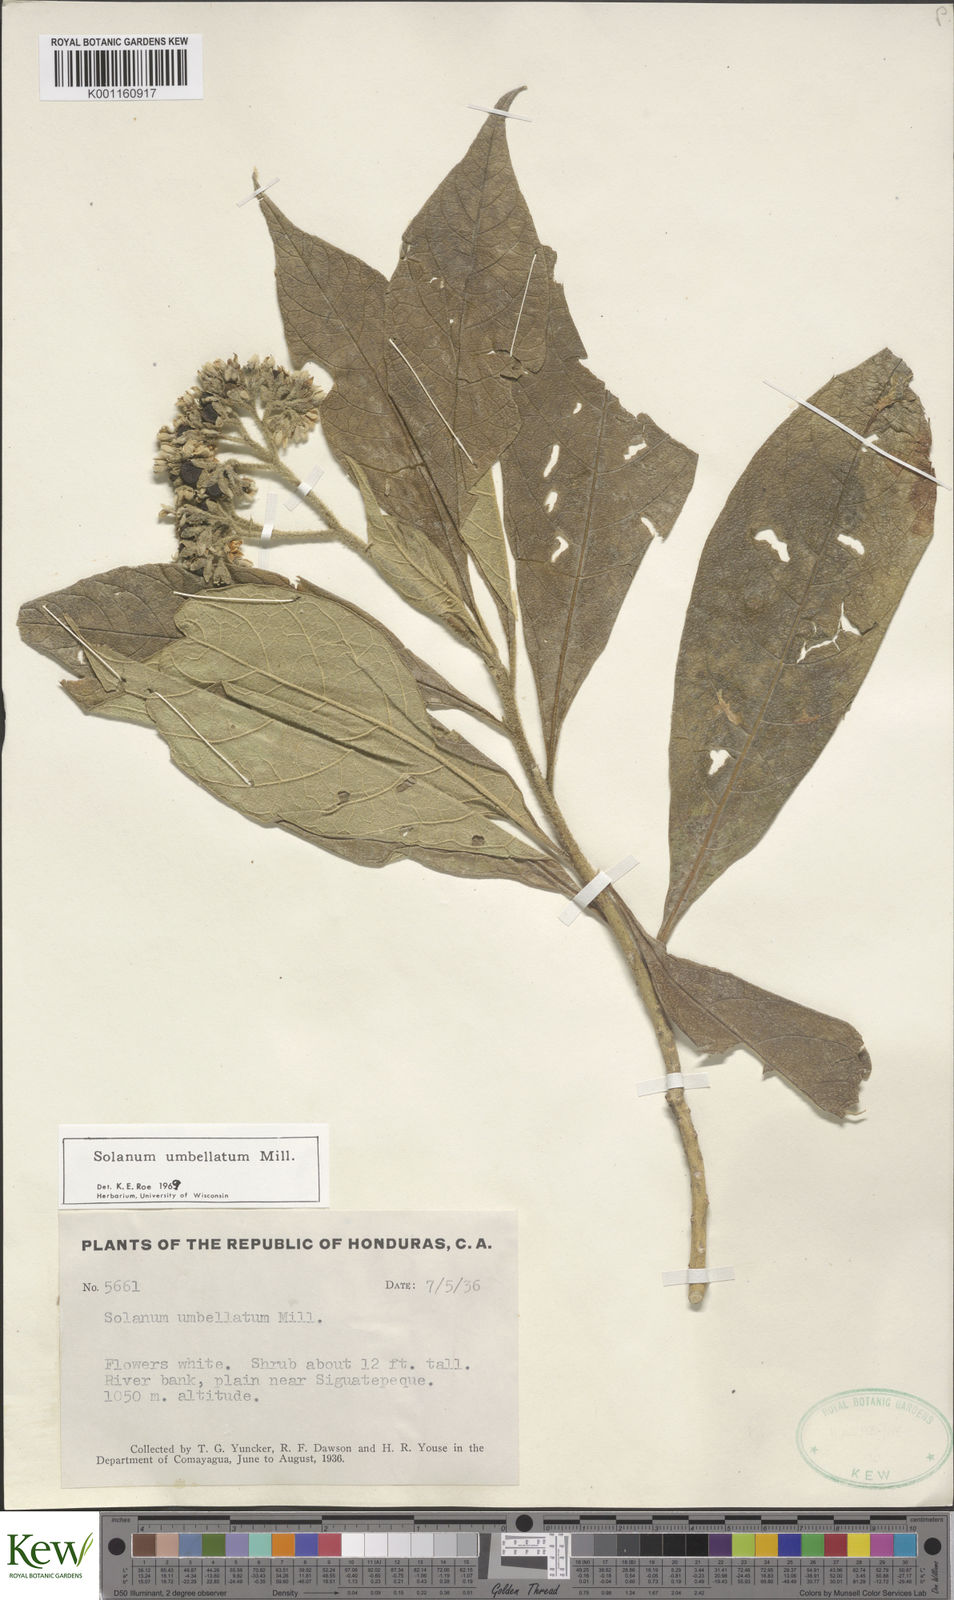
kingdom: Plantae
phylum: Tracheophyta
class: Magnoliopsida
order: Solanales
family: Solanaceae
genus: Solanum
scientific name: Solanum umbellatum
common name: Nightshade
